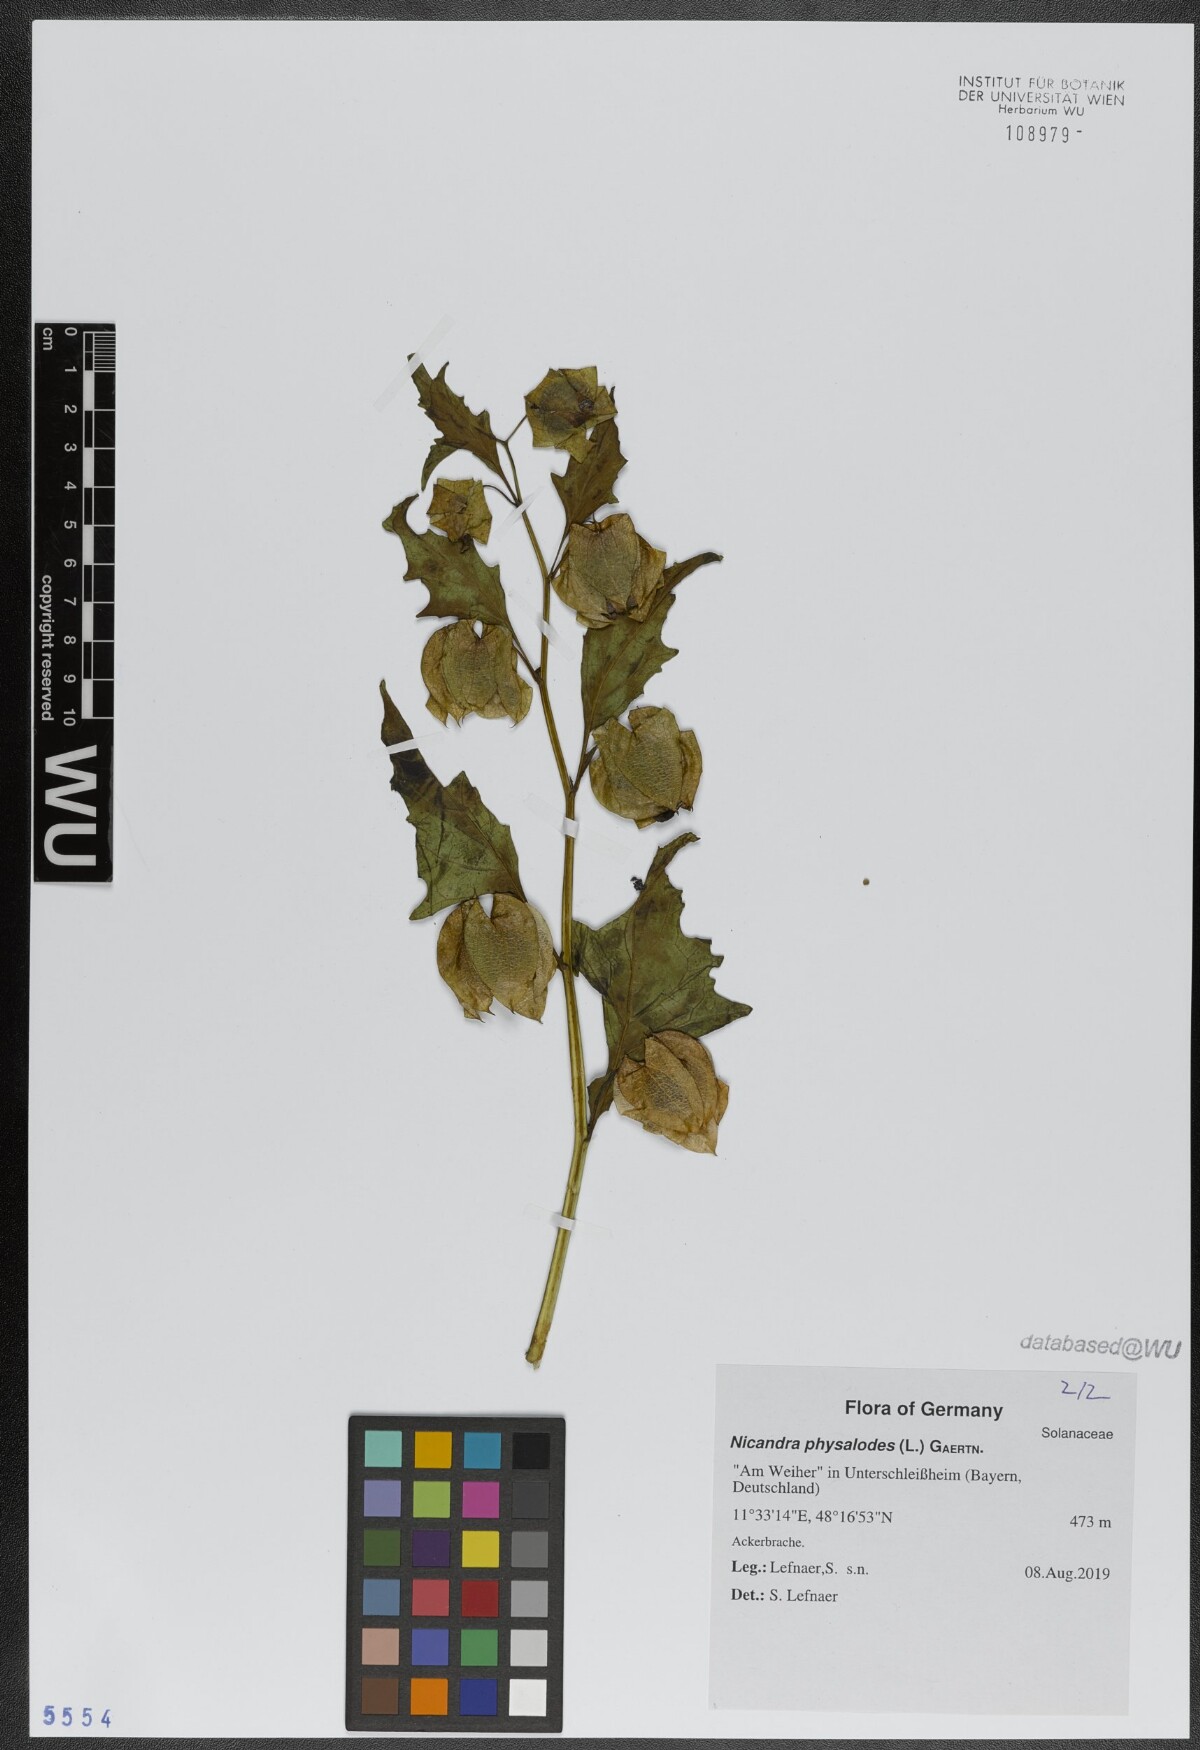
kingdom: Plantae
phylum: Tracheophyta
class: Magnoliopsida
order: Solanales
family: Solanaceae
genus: Nicandra
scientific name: Nicandra physalodes
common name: Apple-of-peru
